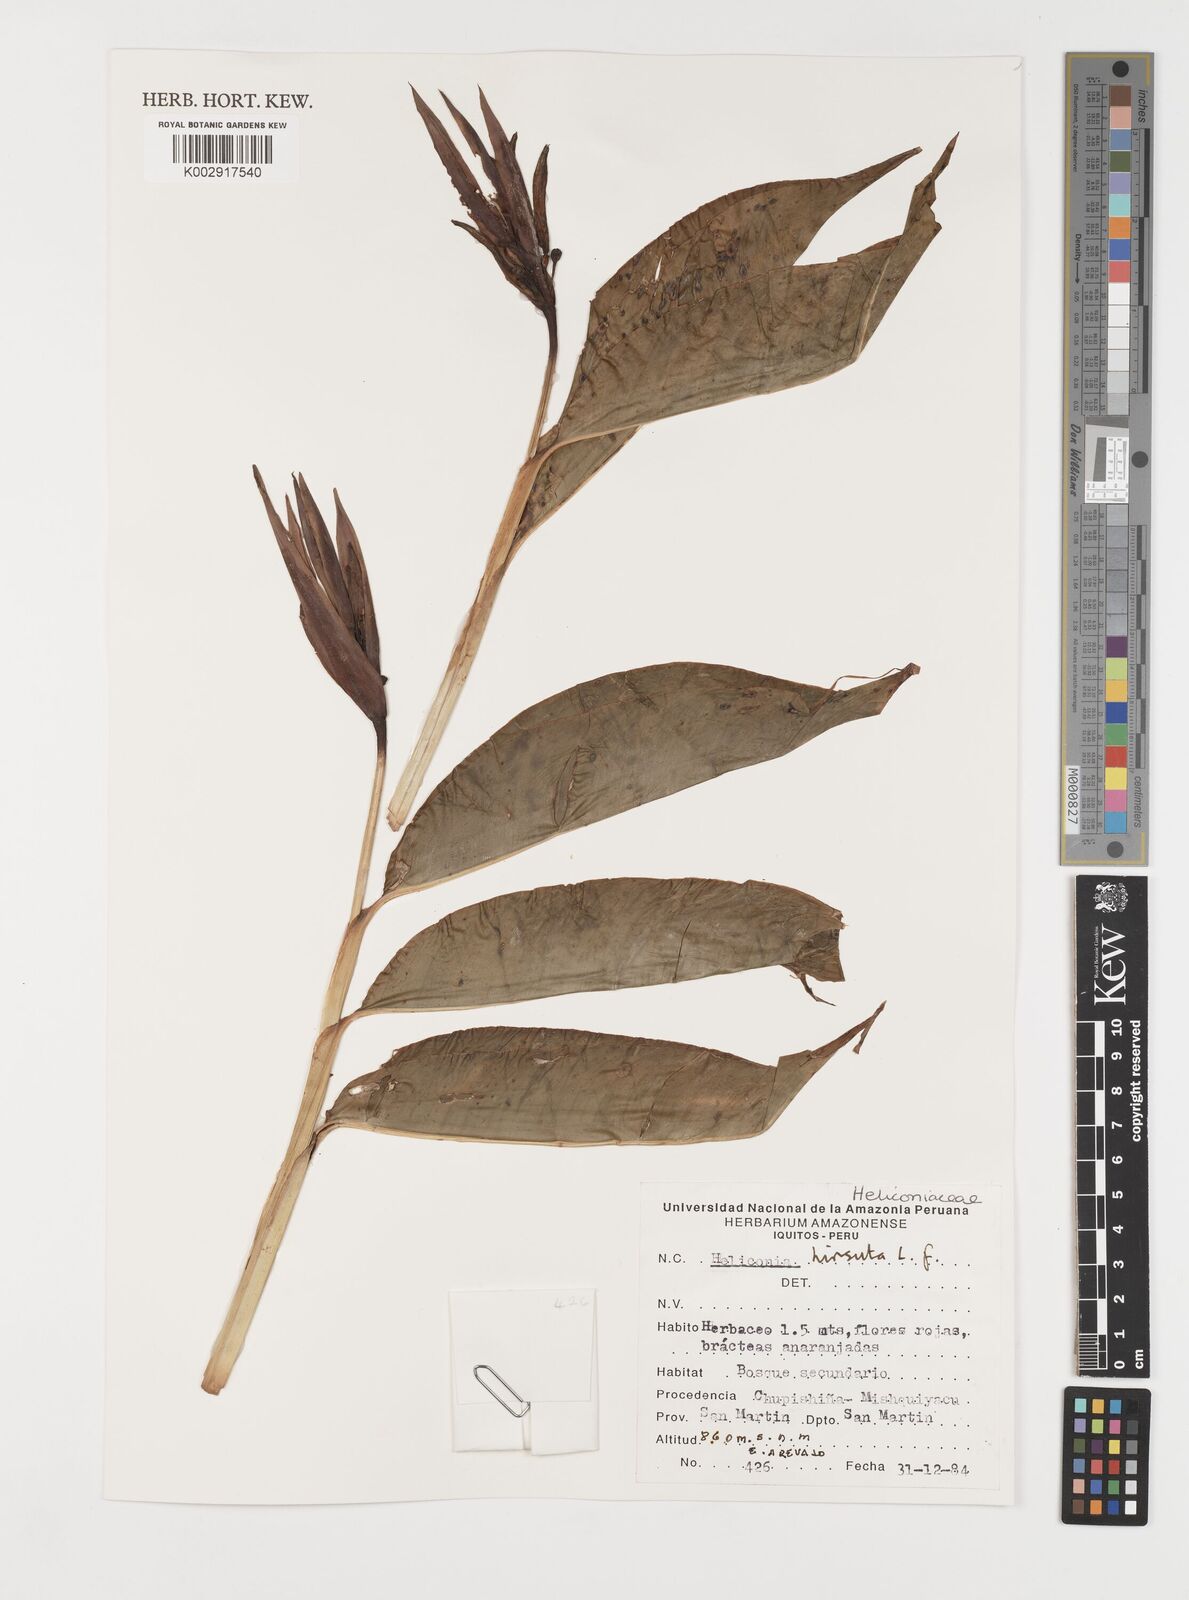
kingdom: Plantae
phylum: Tracheophyta
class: Liliopsida
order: Zingiberales
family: Heliconiaceae
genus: Heliconia
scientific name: Heliconia hirsuta
